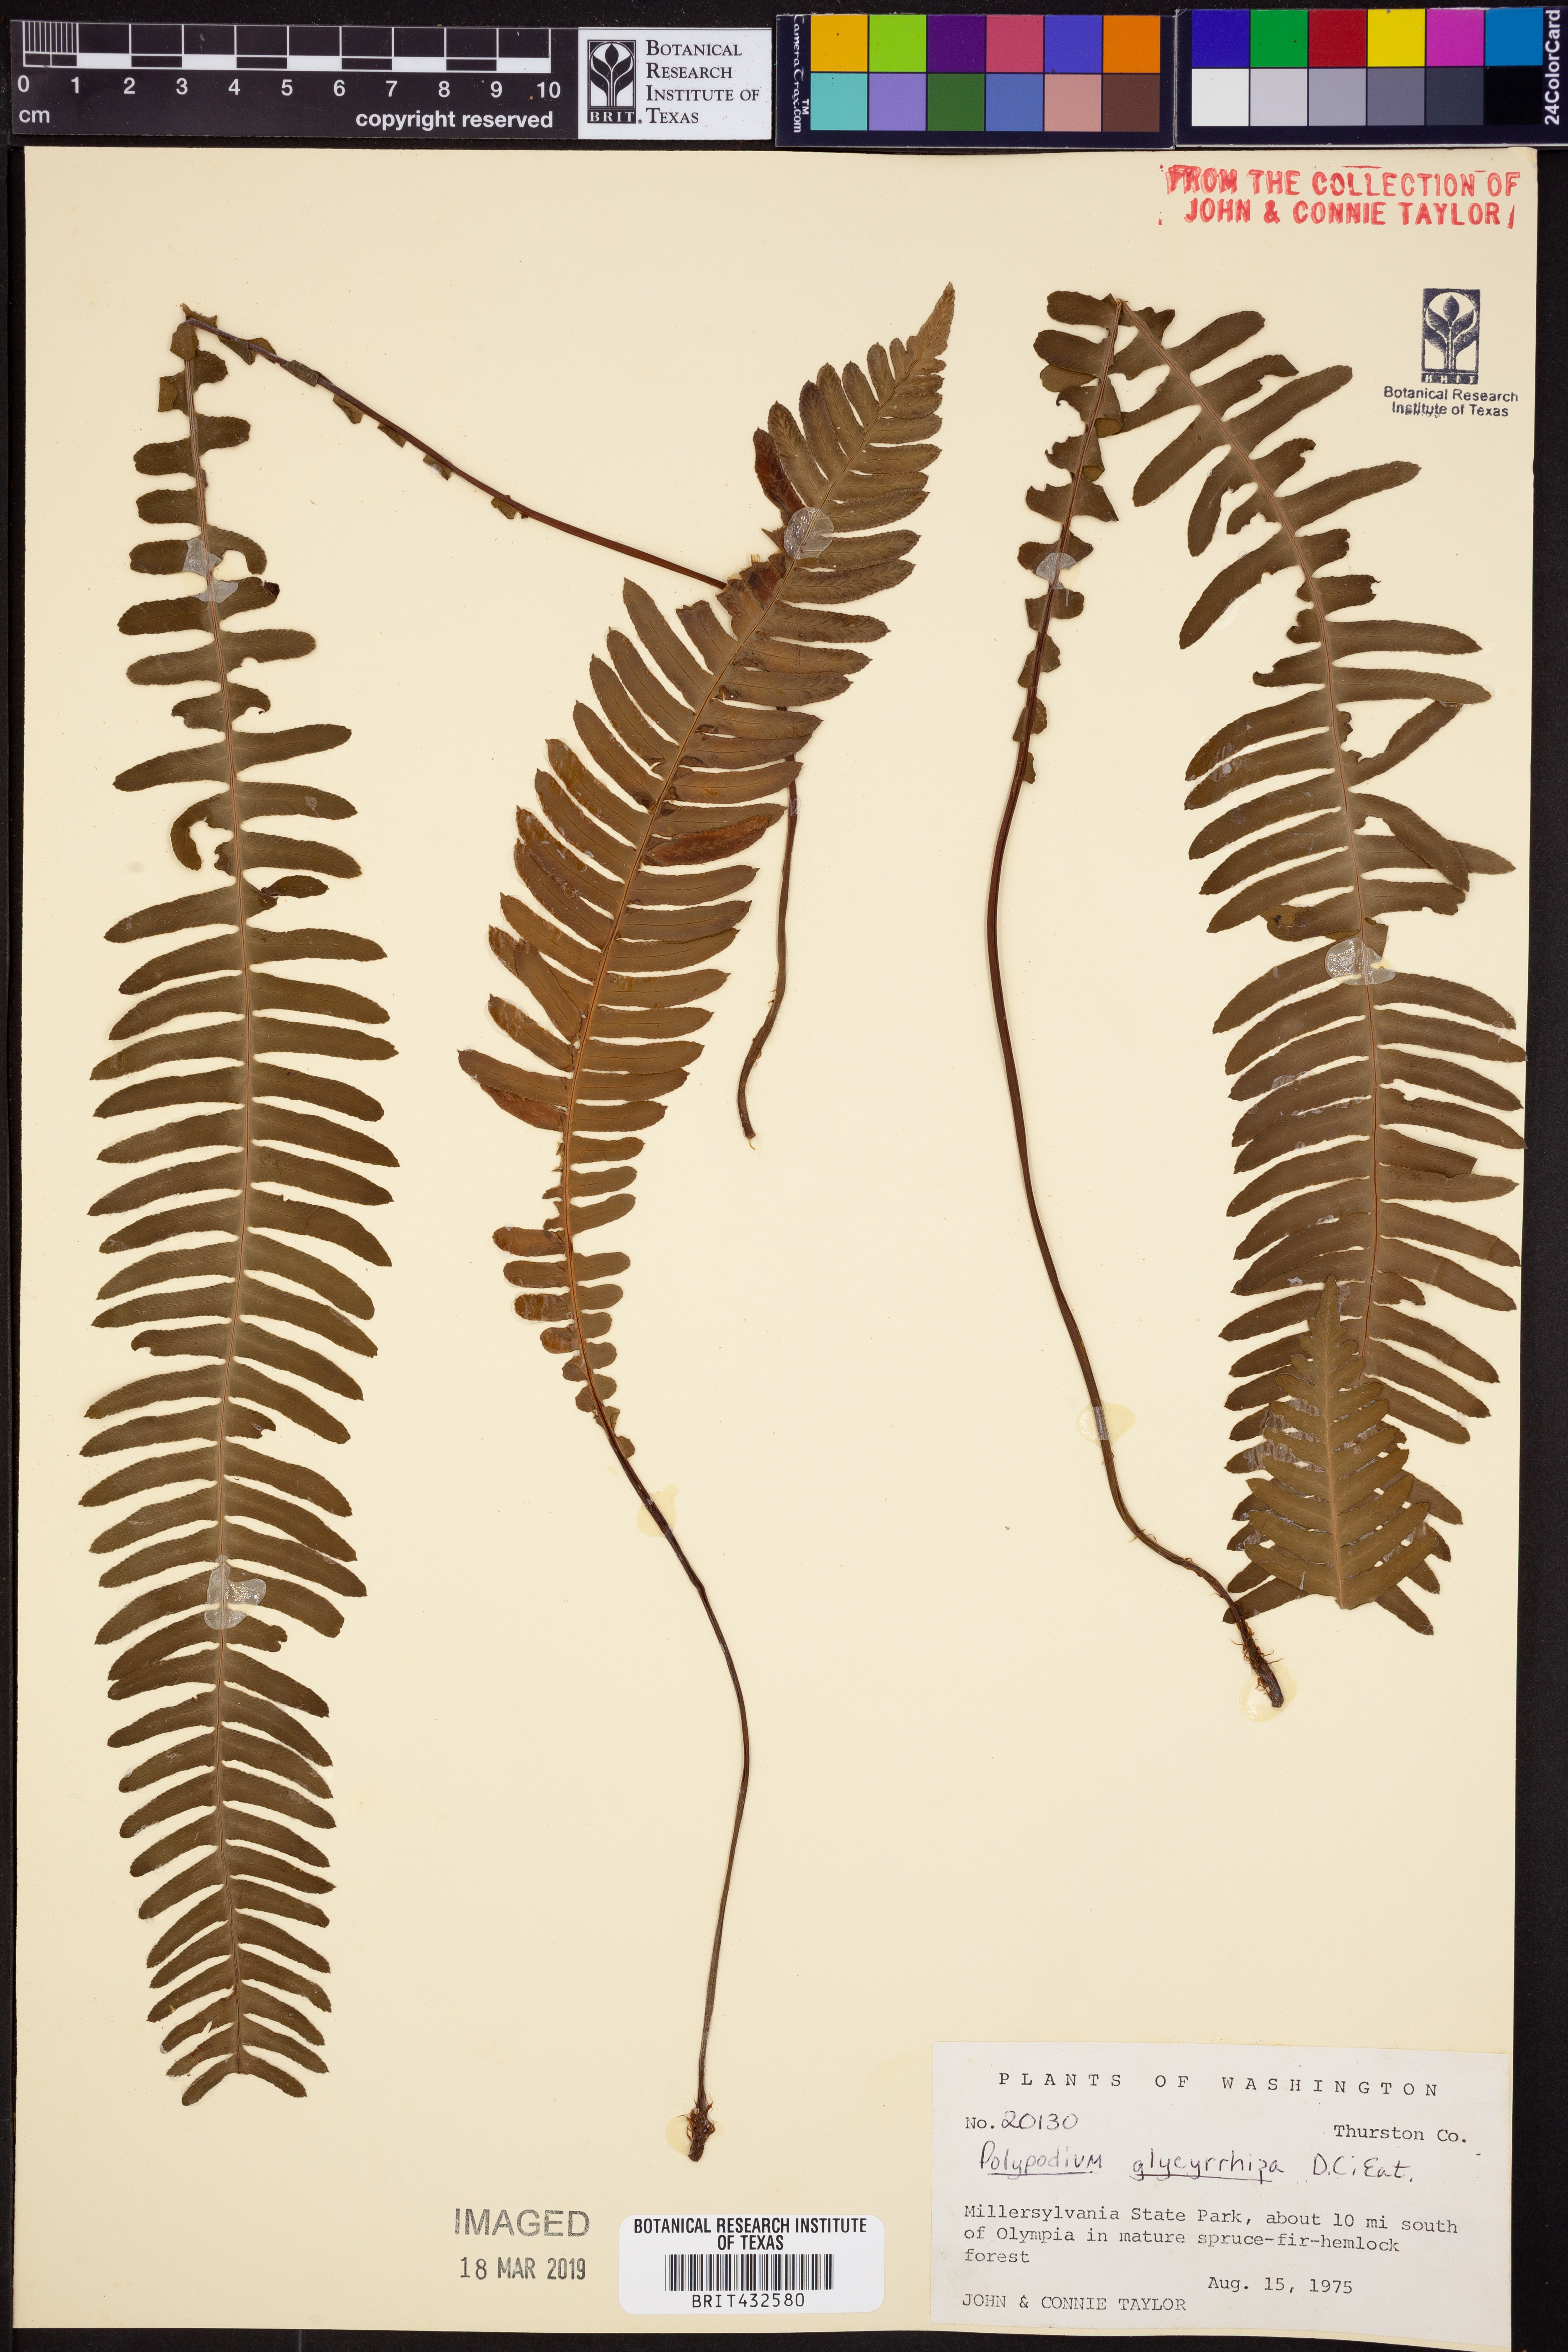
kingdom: Plantae
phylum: Tracheophyta
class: Polypodiopsida
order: Polypodiales
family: Polypodiaceae
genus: Polypodium
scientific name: Polypodium glycyrrhiza
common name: Licorice fern
